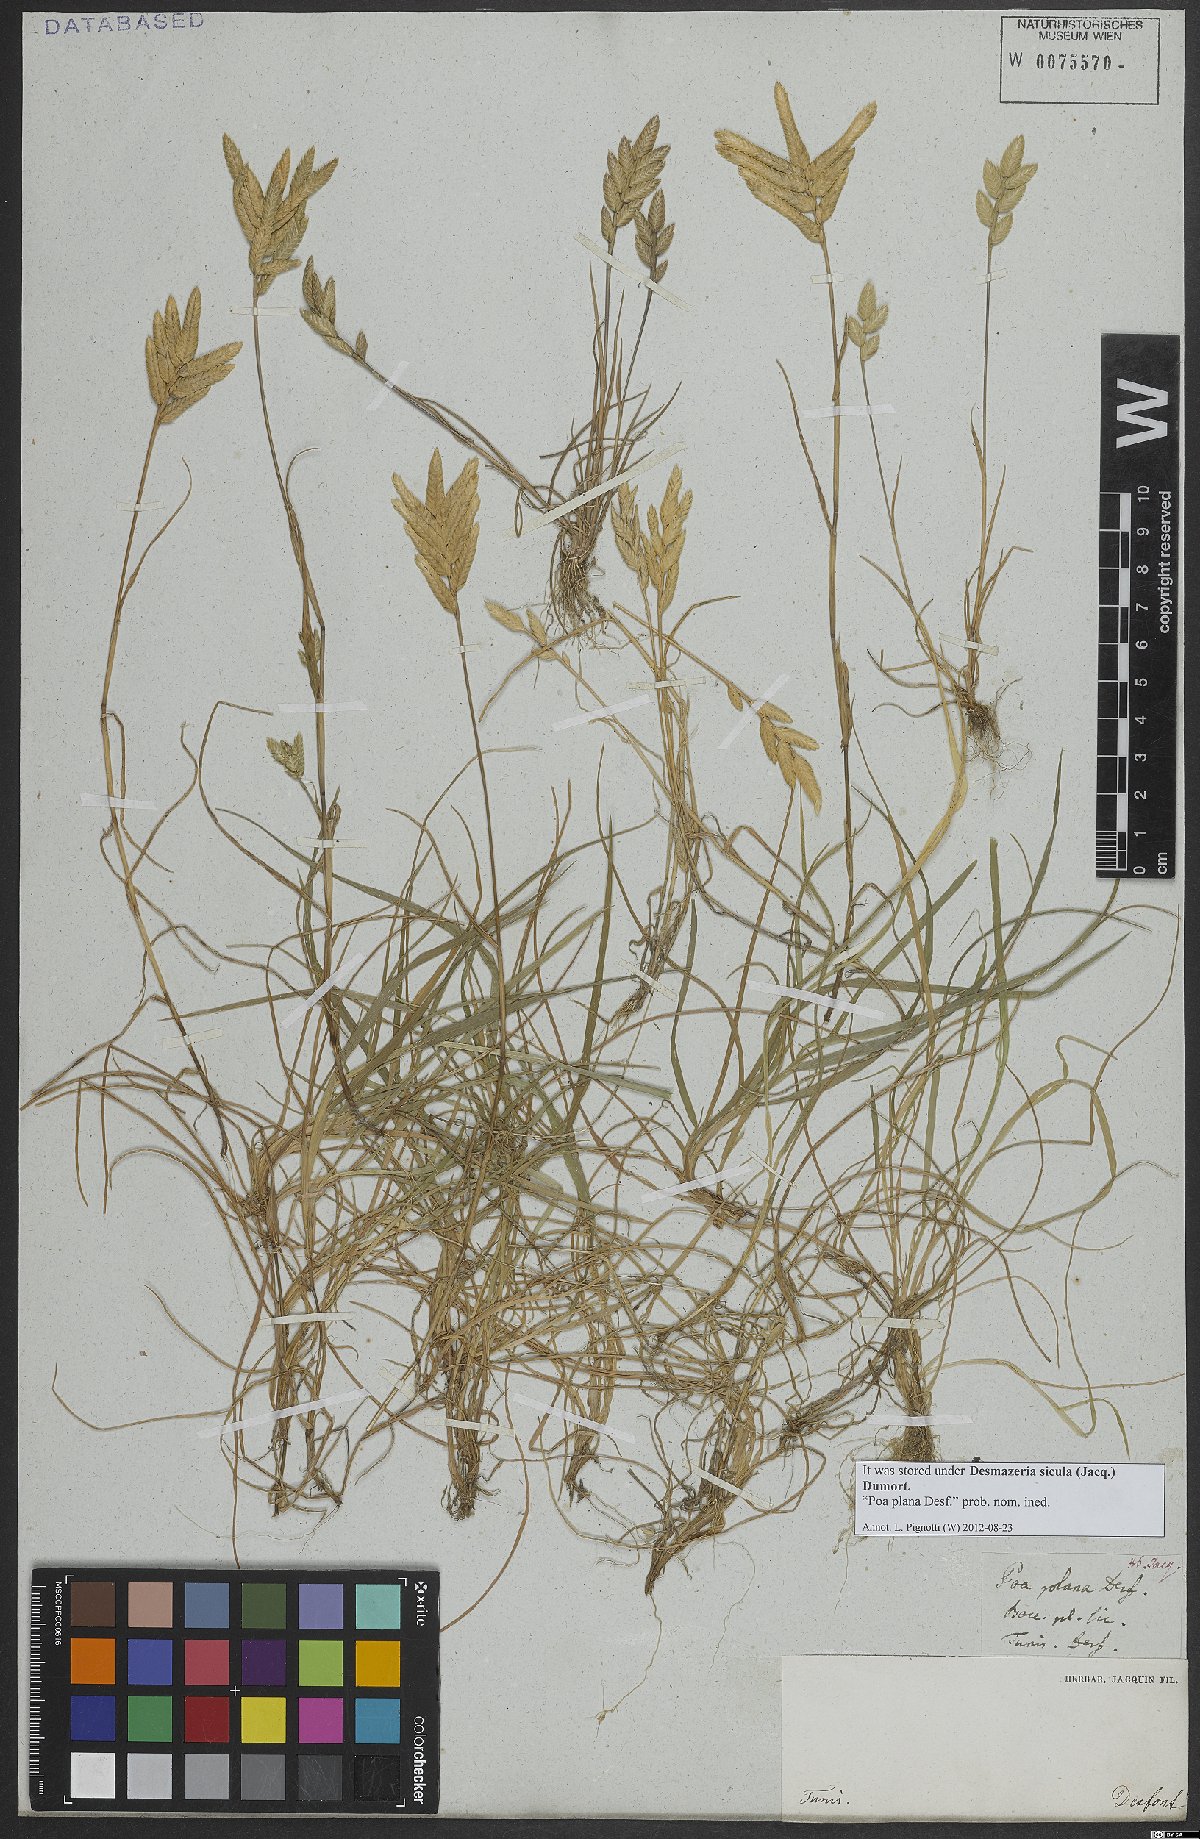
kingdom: Plantae
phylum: Tracheophyta
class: Liliopsida
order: Poales
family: Poaceae
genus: Desmazeria
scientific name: Desmazeria sicula
